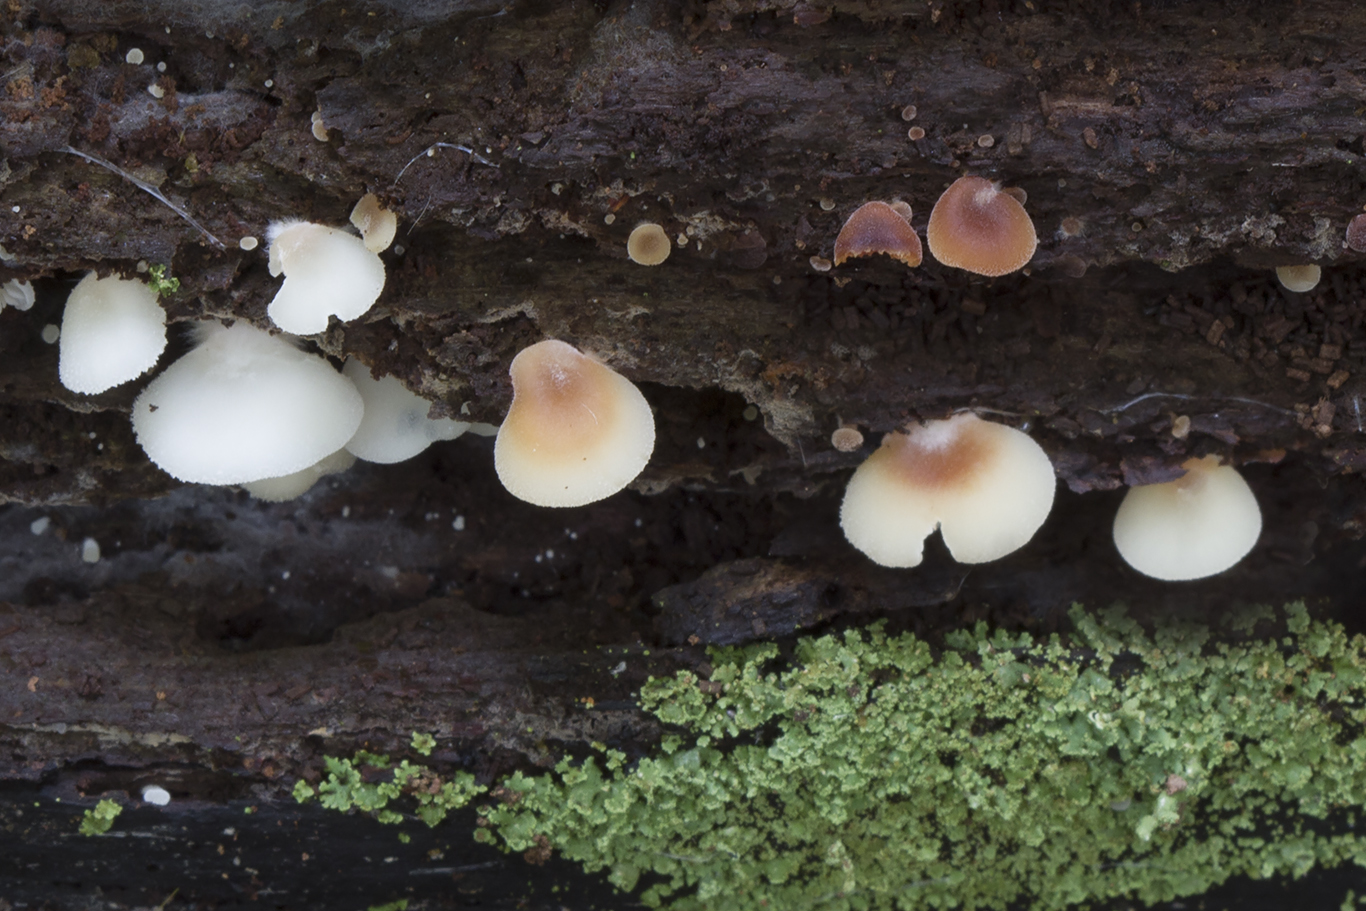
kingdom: Fungi
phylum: Basidiomycota
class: Agaricomycetes
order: Agaricales
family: Crepidotaceae
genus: Crepidotus
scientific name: Crepidotus applanatus
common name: tvefarvet muslingesvamp
